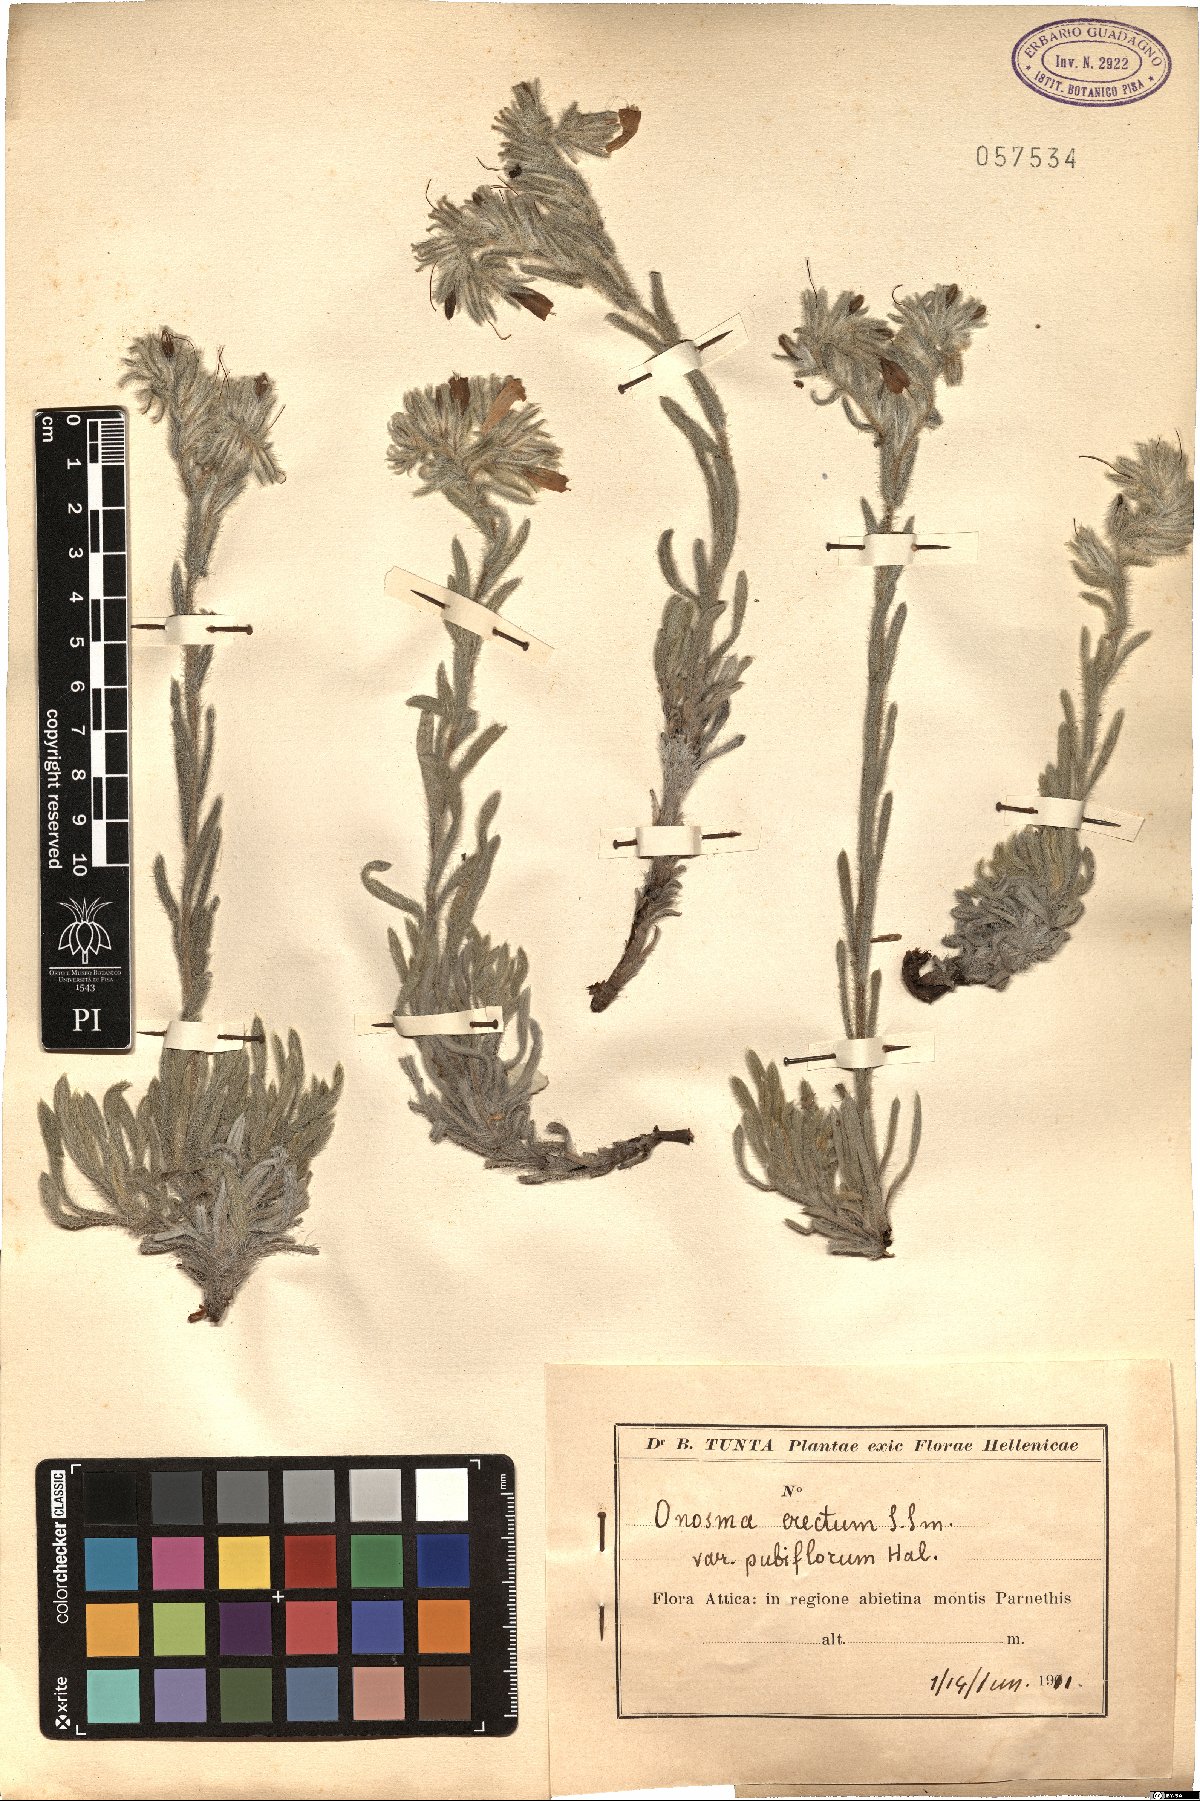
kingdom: Plantae
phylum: Tracheophyta
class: Magnoliopsida
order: Boraginales
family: Boraginaceae
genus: Onosma
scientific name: Onosma kaheirei
